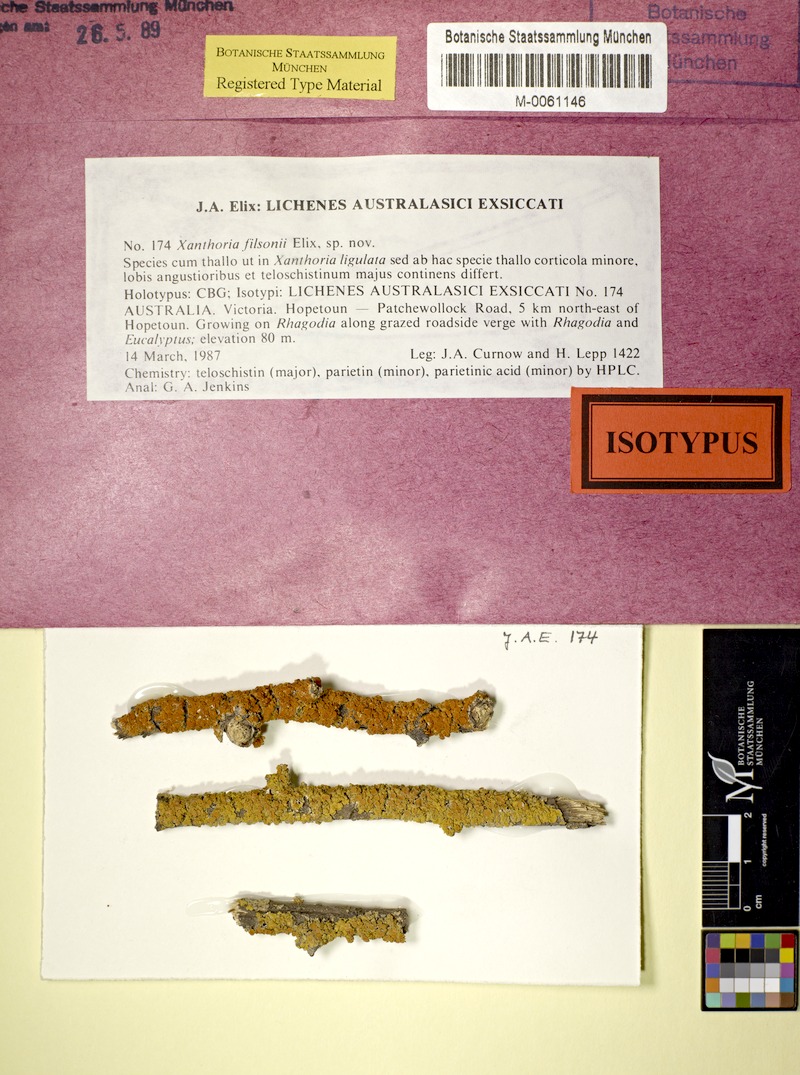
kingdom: Fungi
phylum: Ascomycota
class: Lecanoromycetes
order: Teloschistales
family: Teloschistaceae
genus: Dufourea
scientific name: Dufourea filsonii
